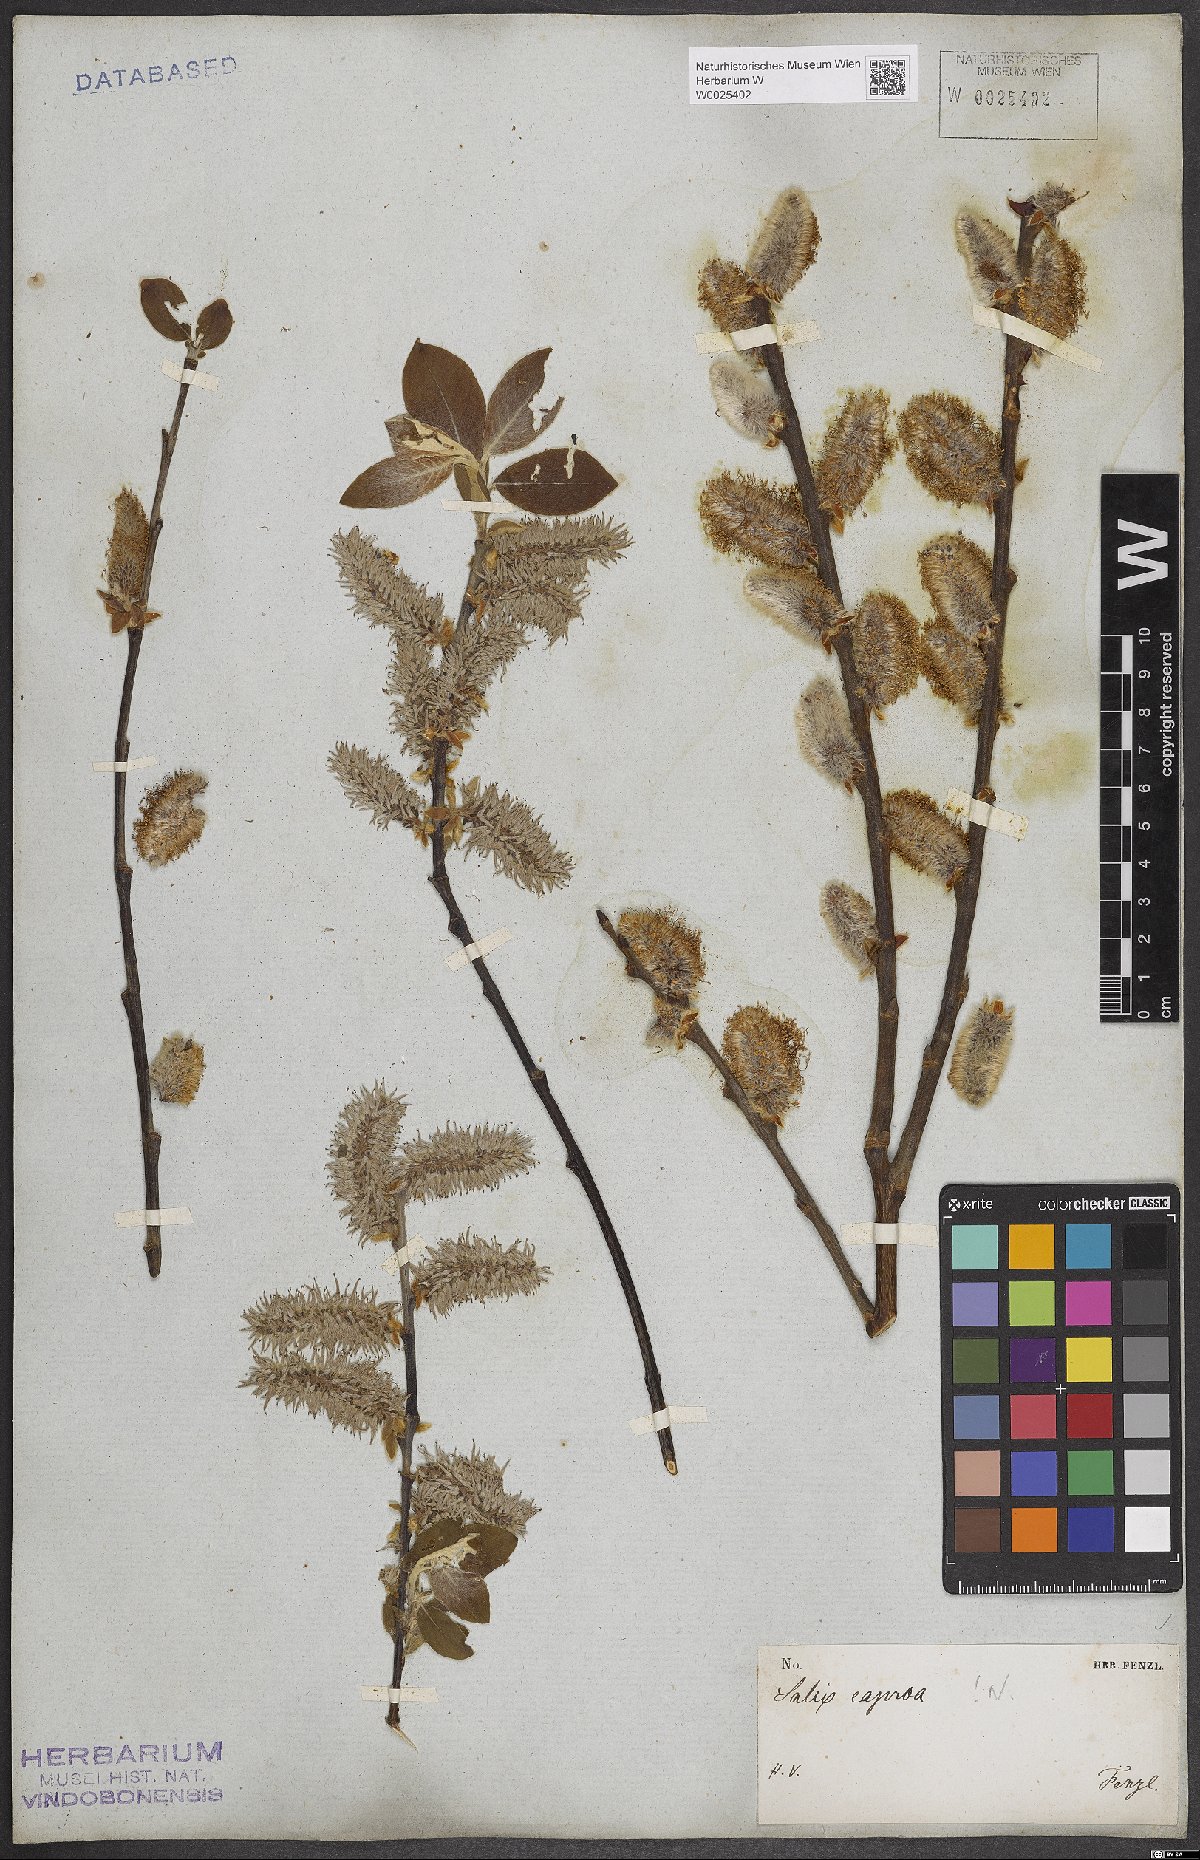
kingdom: Plantae
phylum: Tracheophyta
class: Magnoliopsida
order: Malpighiales
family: Salicaceae
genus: Salix
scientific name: Salix caprea
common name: Goat willow
